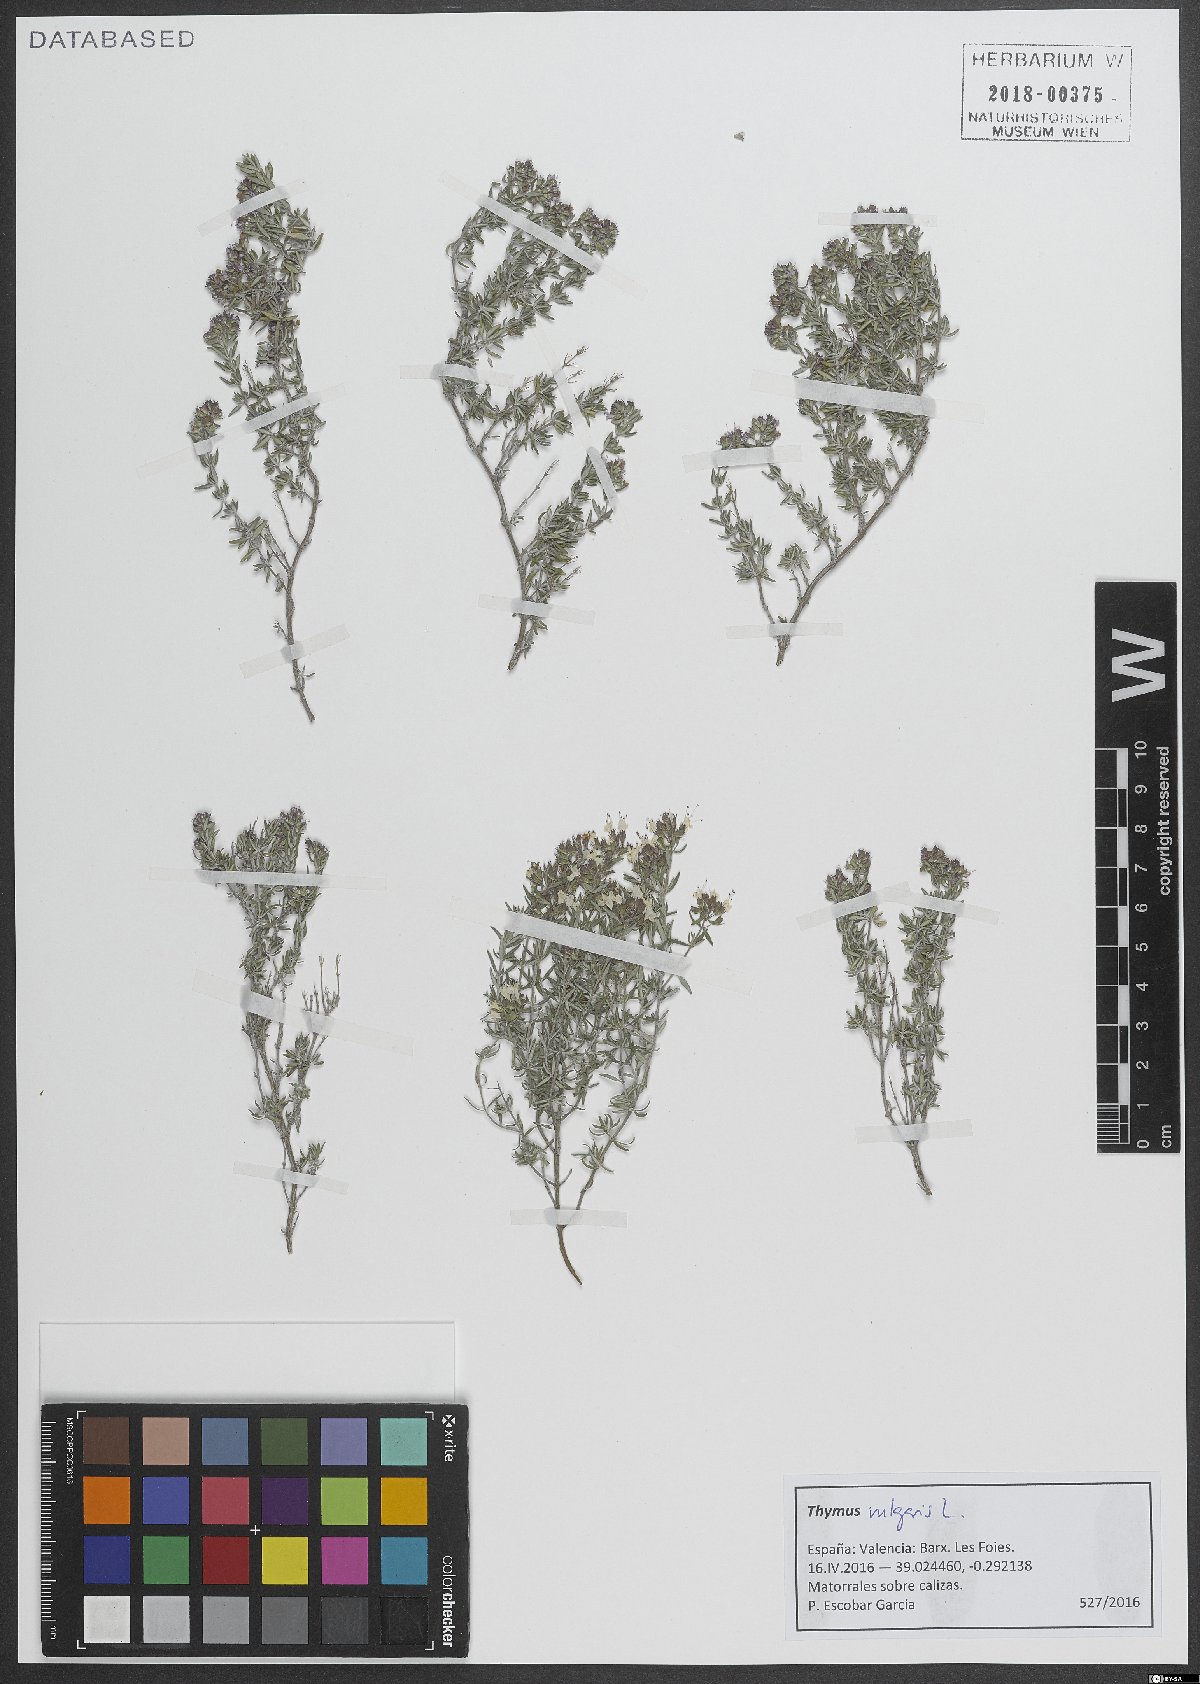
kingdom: Plantae
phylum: Tracheophyta
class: Magnoliopsida
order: Lamiales
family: Lamiaceae
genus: Thymus
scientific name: Thymus vulgaris
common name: Garden thyme
